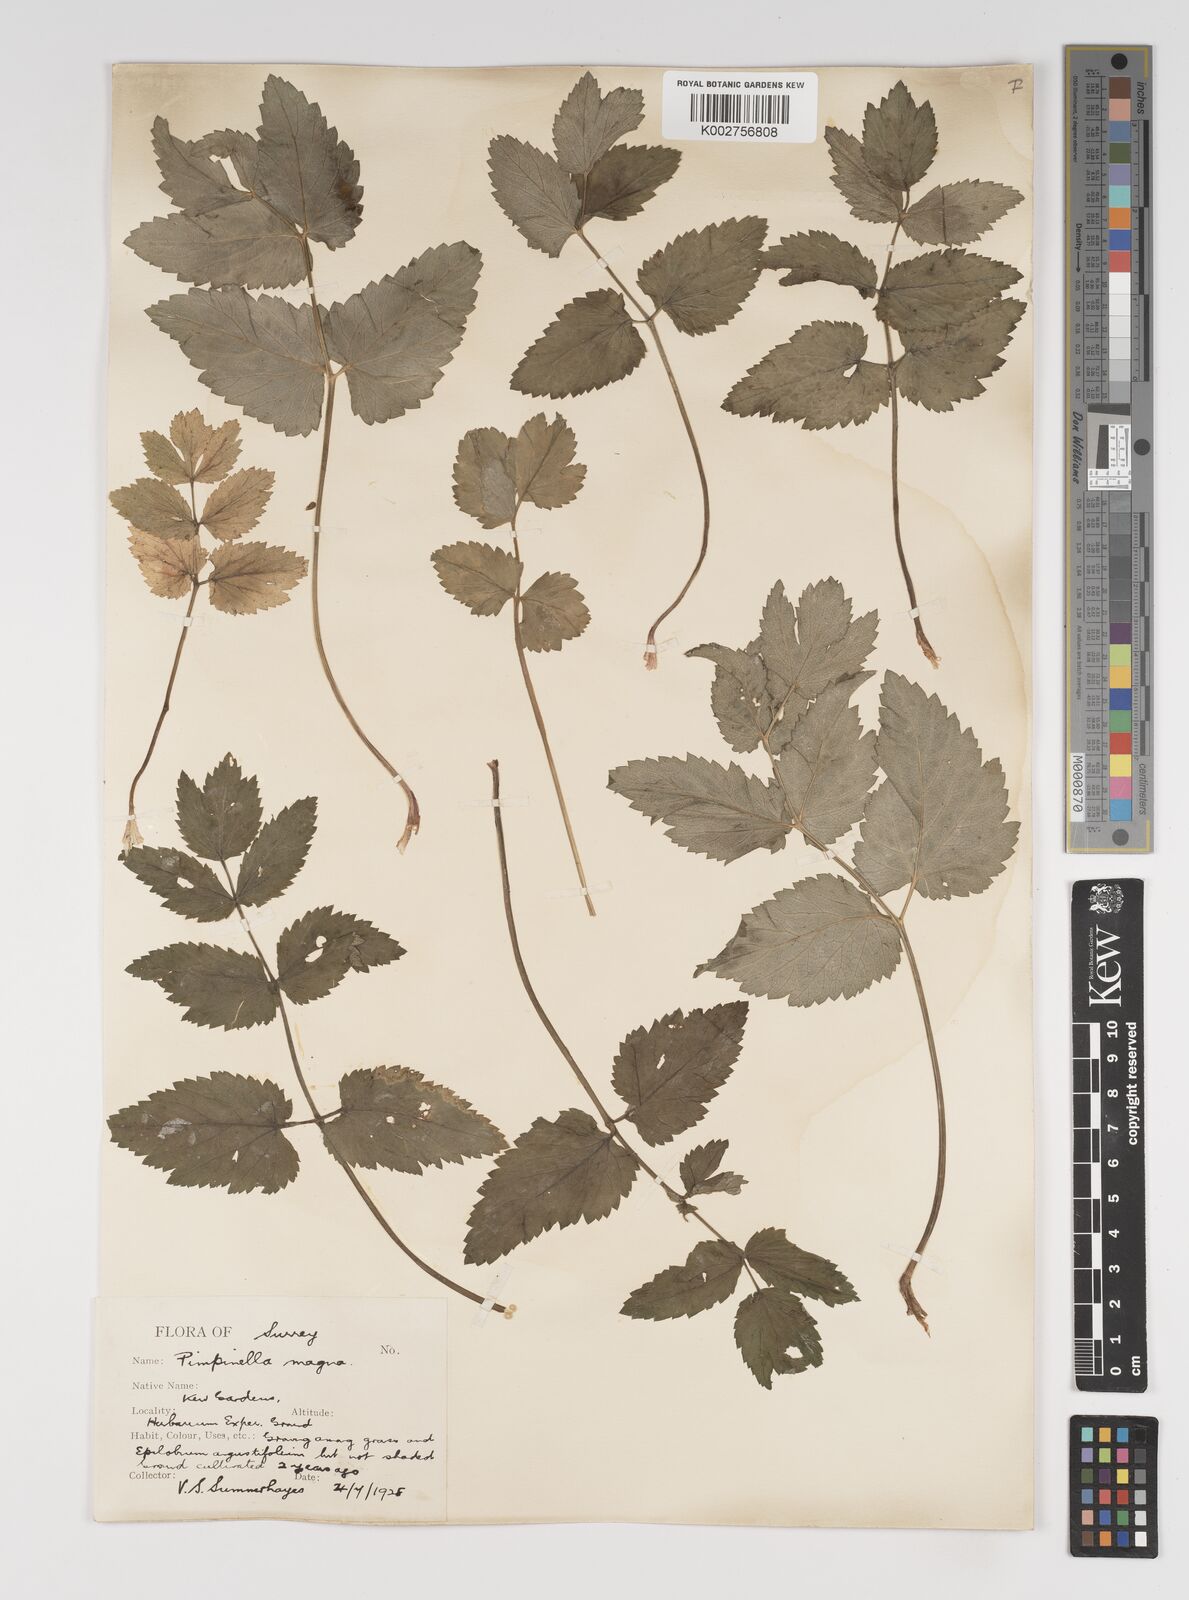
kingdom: Plantae
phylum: Tracheophyta
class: Magnoliopsida
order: Apiales
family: Apiaceae
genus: Pimpinella
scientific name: Pimpinella major
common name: Greater burnet-saxifrage
